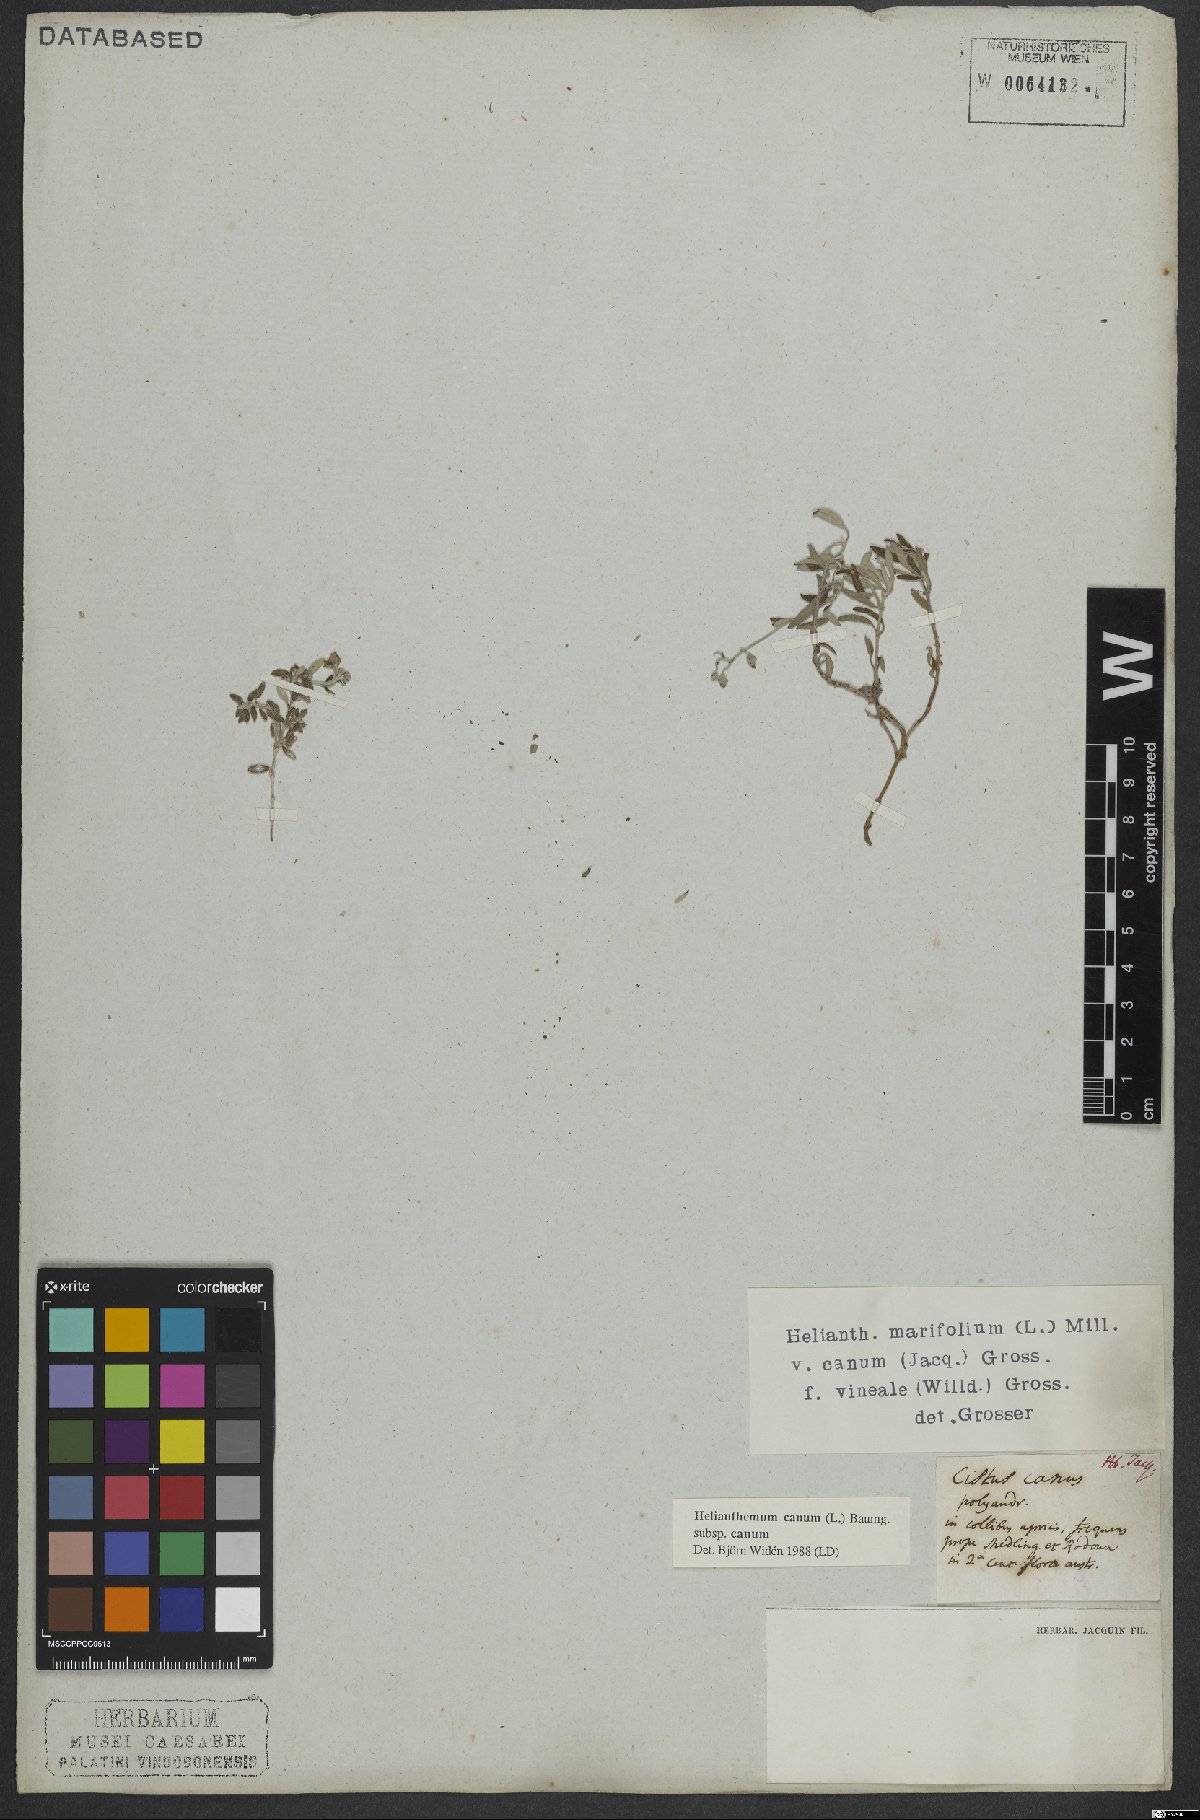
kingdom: Plantae
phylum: Tracheophyta
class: Magnoliopsida
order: Malvales
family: Cistaceae
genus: Helianthemum
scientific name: Helianthemum canum
